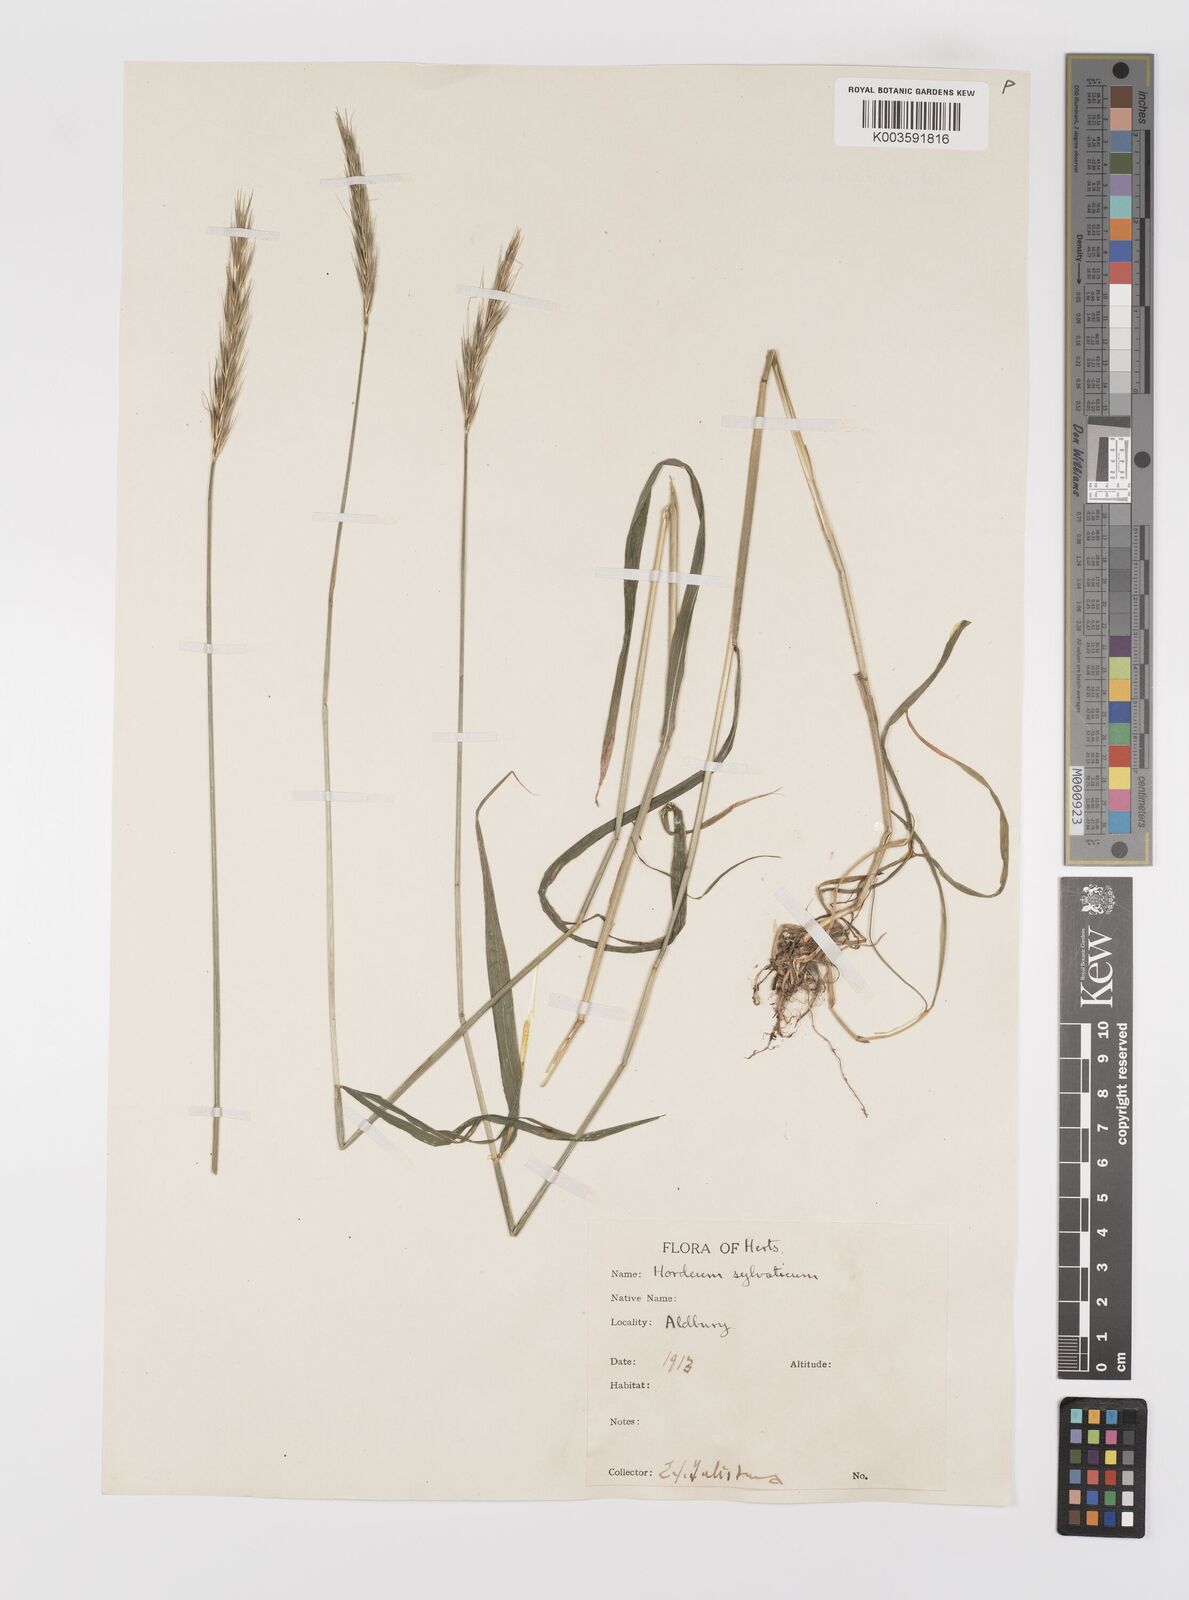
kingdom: Plantae
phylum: Tracheophyta
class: Liliopsida
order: Poales
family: Poaceae
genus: Hordelymus
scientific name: Hordelymus europaeus
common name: Wood-barley
